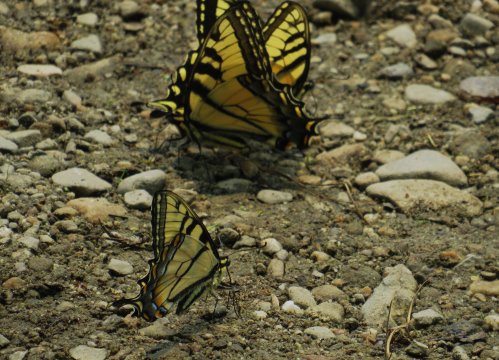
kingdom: Animalia
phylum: Arthropoda
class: Insecta
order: Lepidoptera
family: Papilionidae
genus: Pterourus
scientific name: Pterourus canadensis
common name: Canadian Tiger Swallowtail
